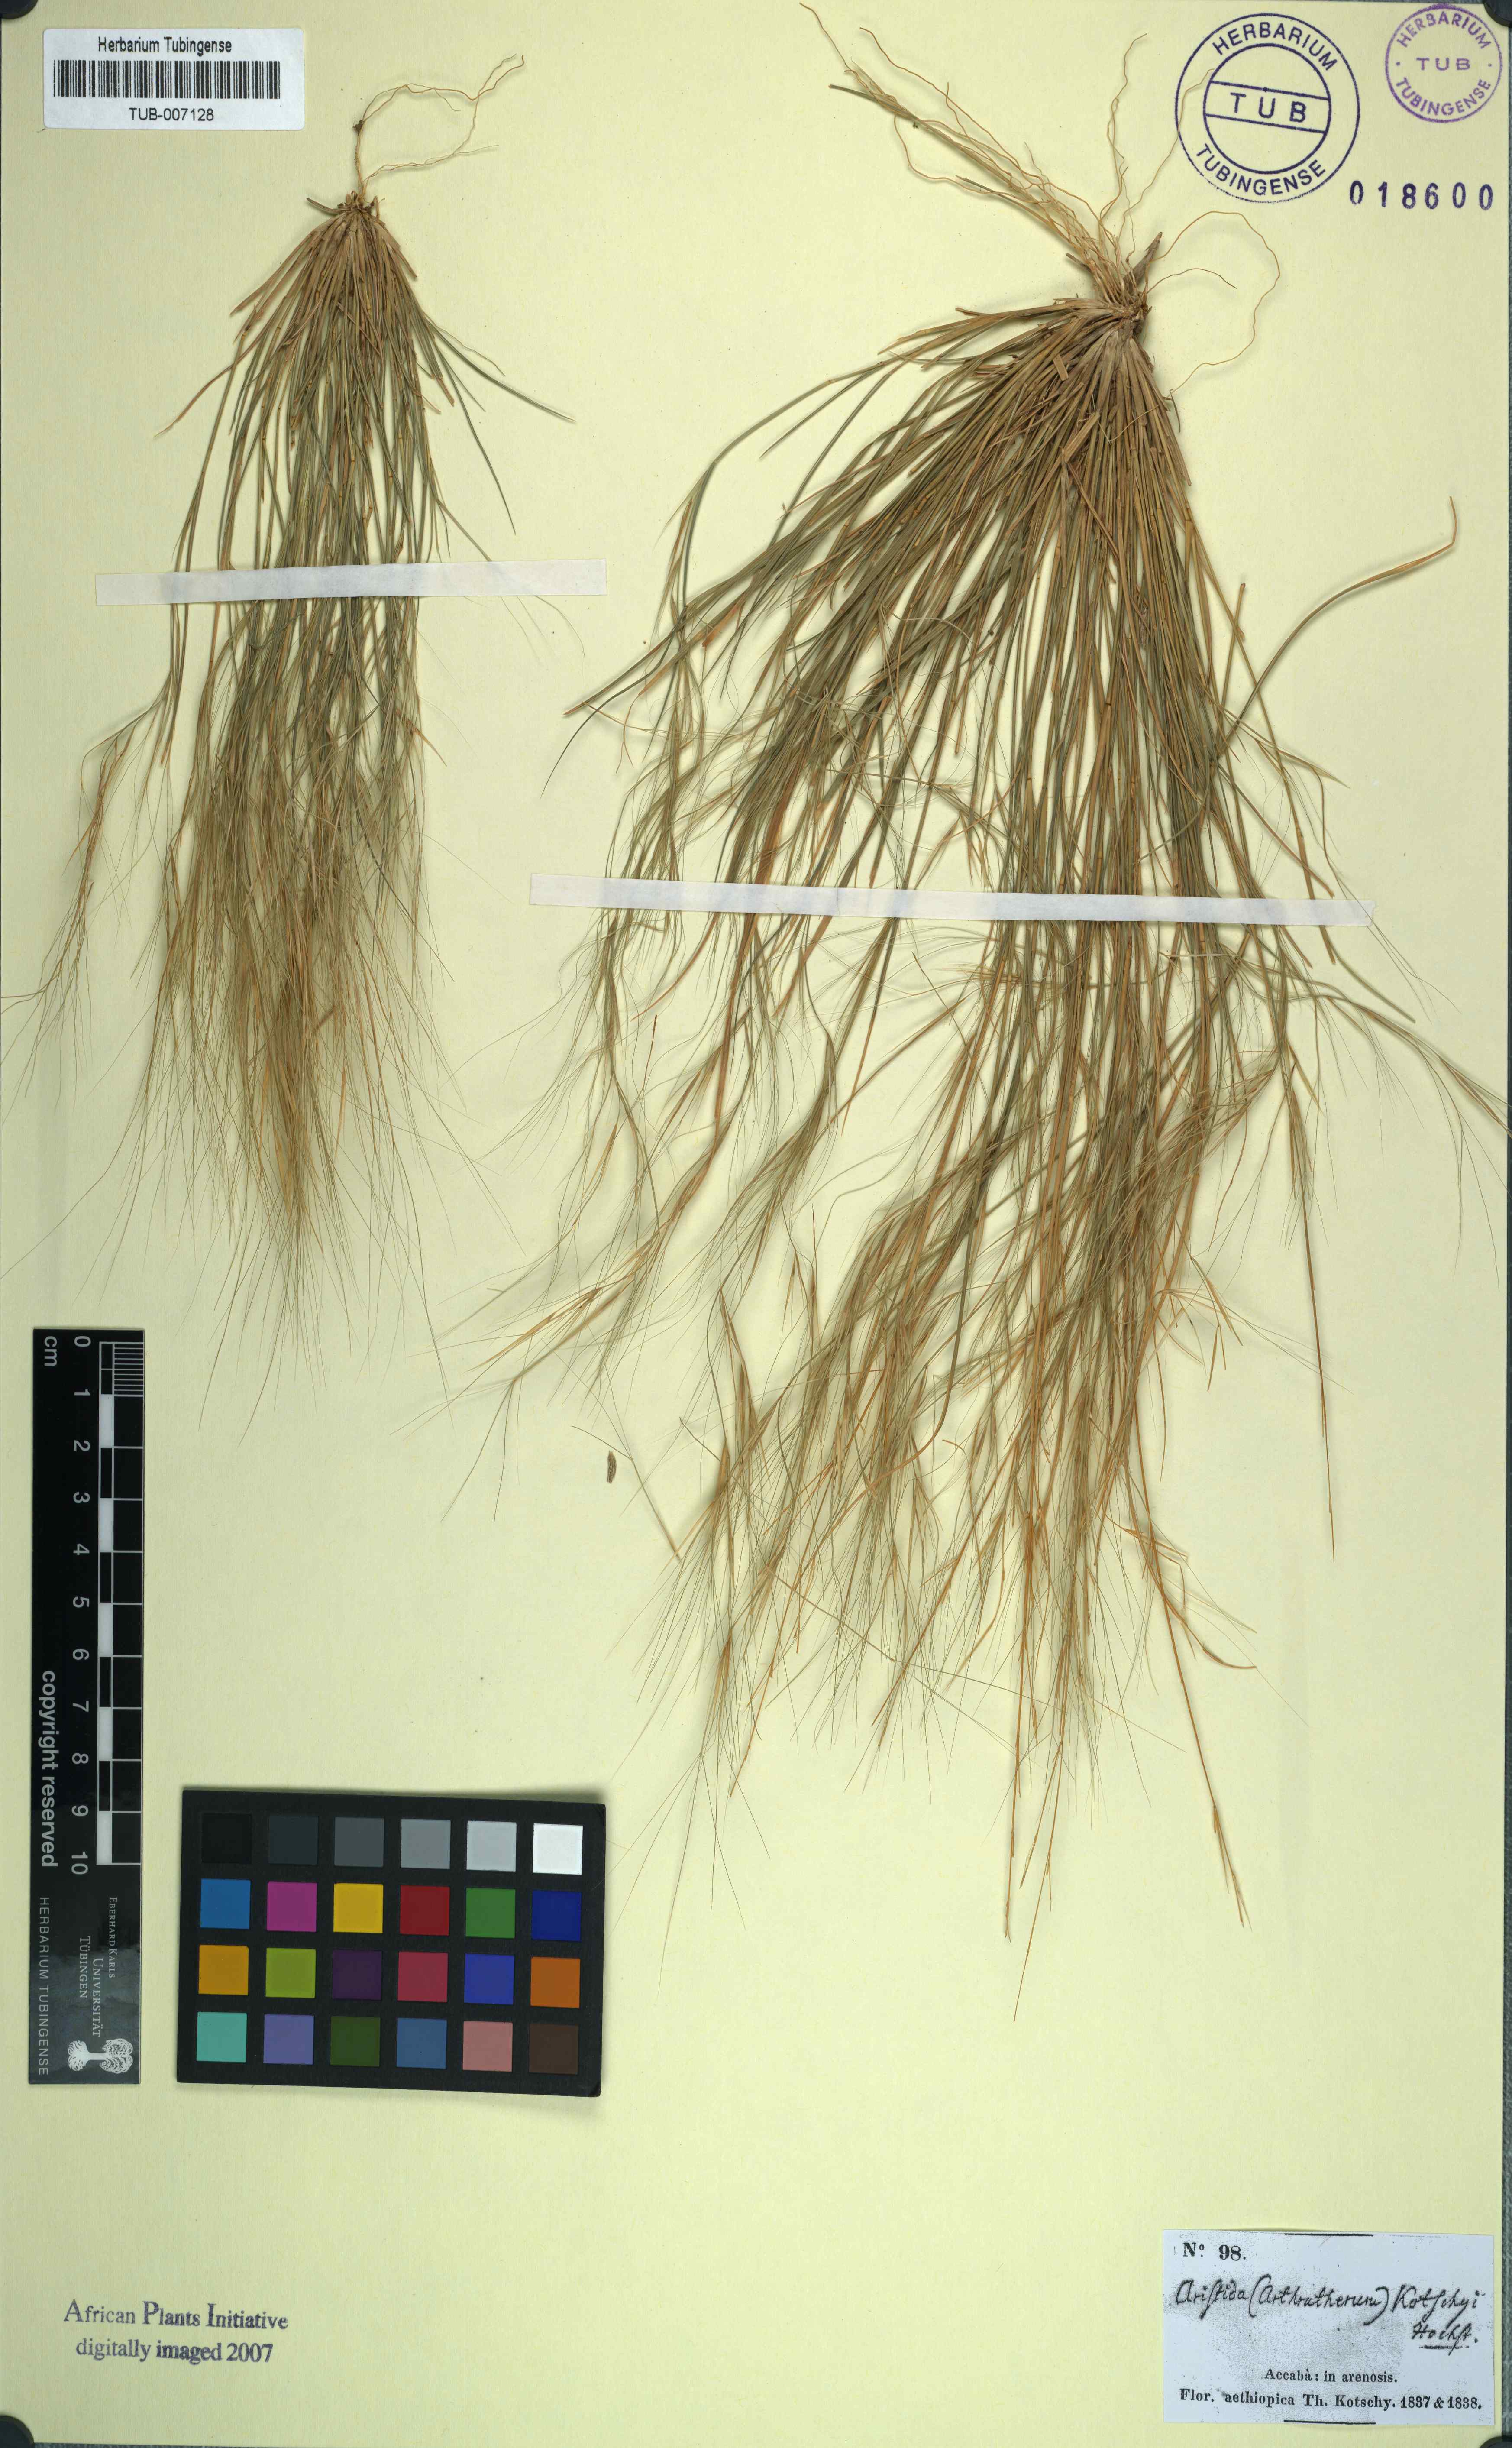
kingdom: Plantae
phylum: Tracheophyta
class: Liliopsida
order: Poales
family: Poaceae
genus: Aristida
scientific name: Aristida funiculata
